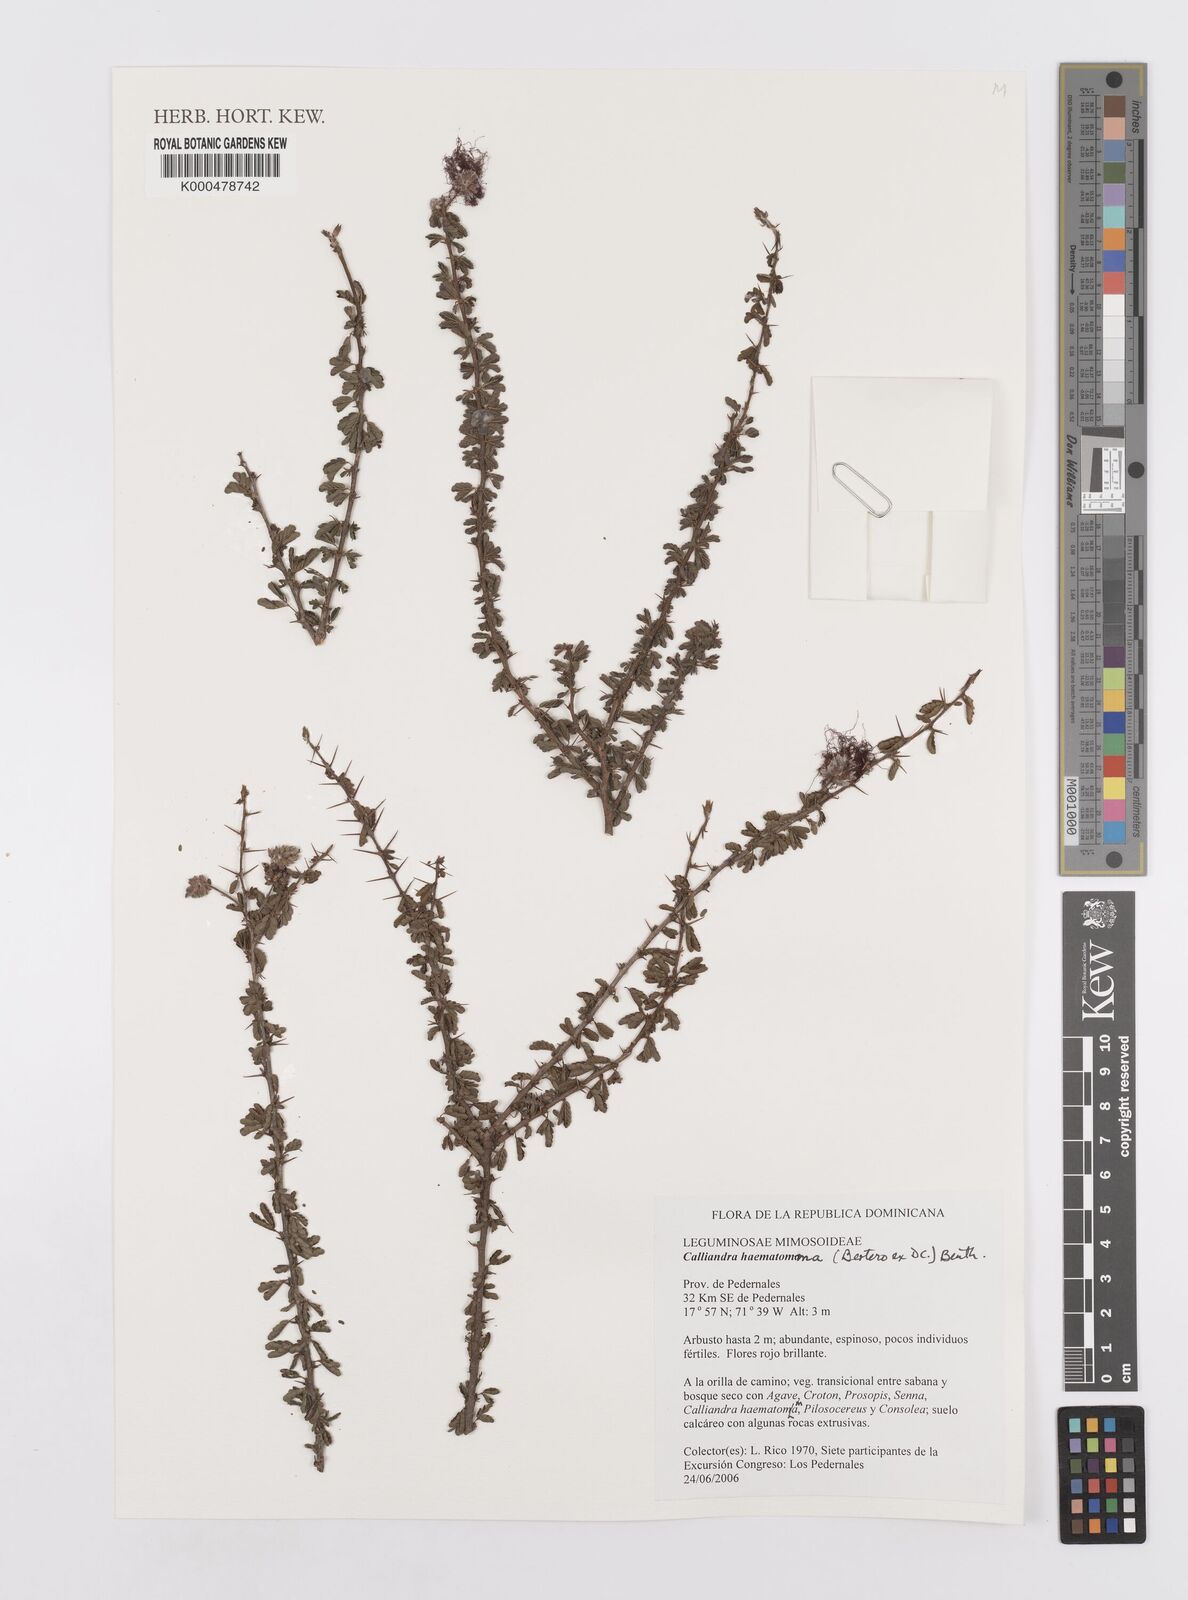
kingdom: Plantae
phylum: Tracheophyta
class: Magnoliopsida
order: Fabales
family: Fabaceae
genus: Calliandra
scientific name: Calliandra haematomma
